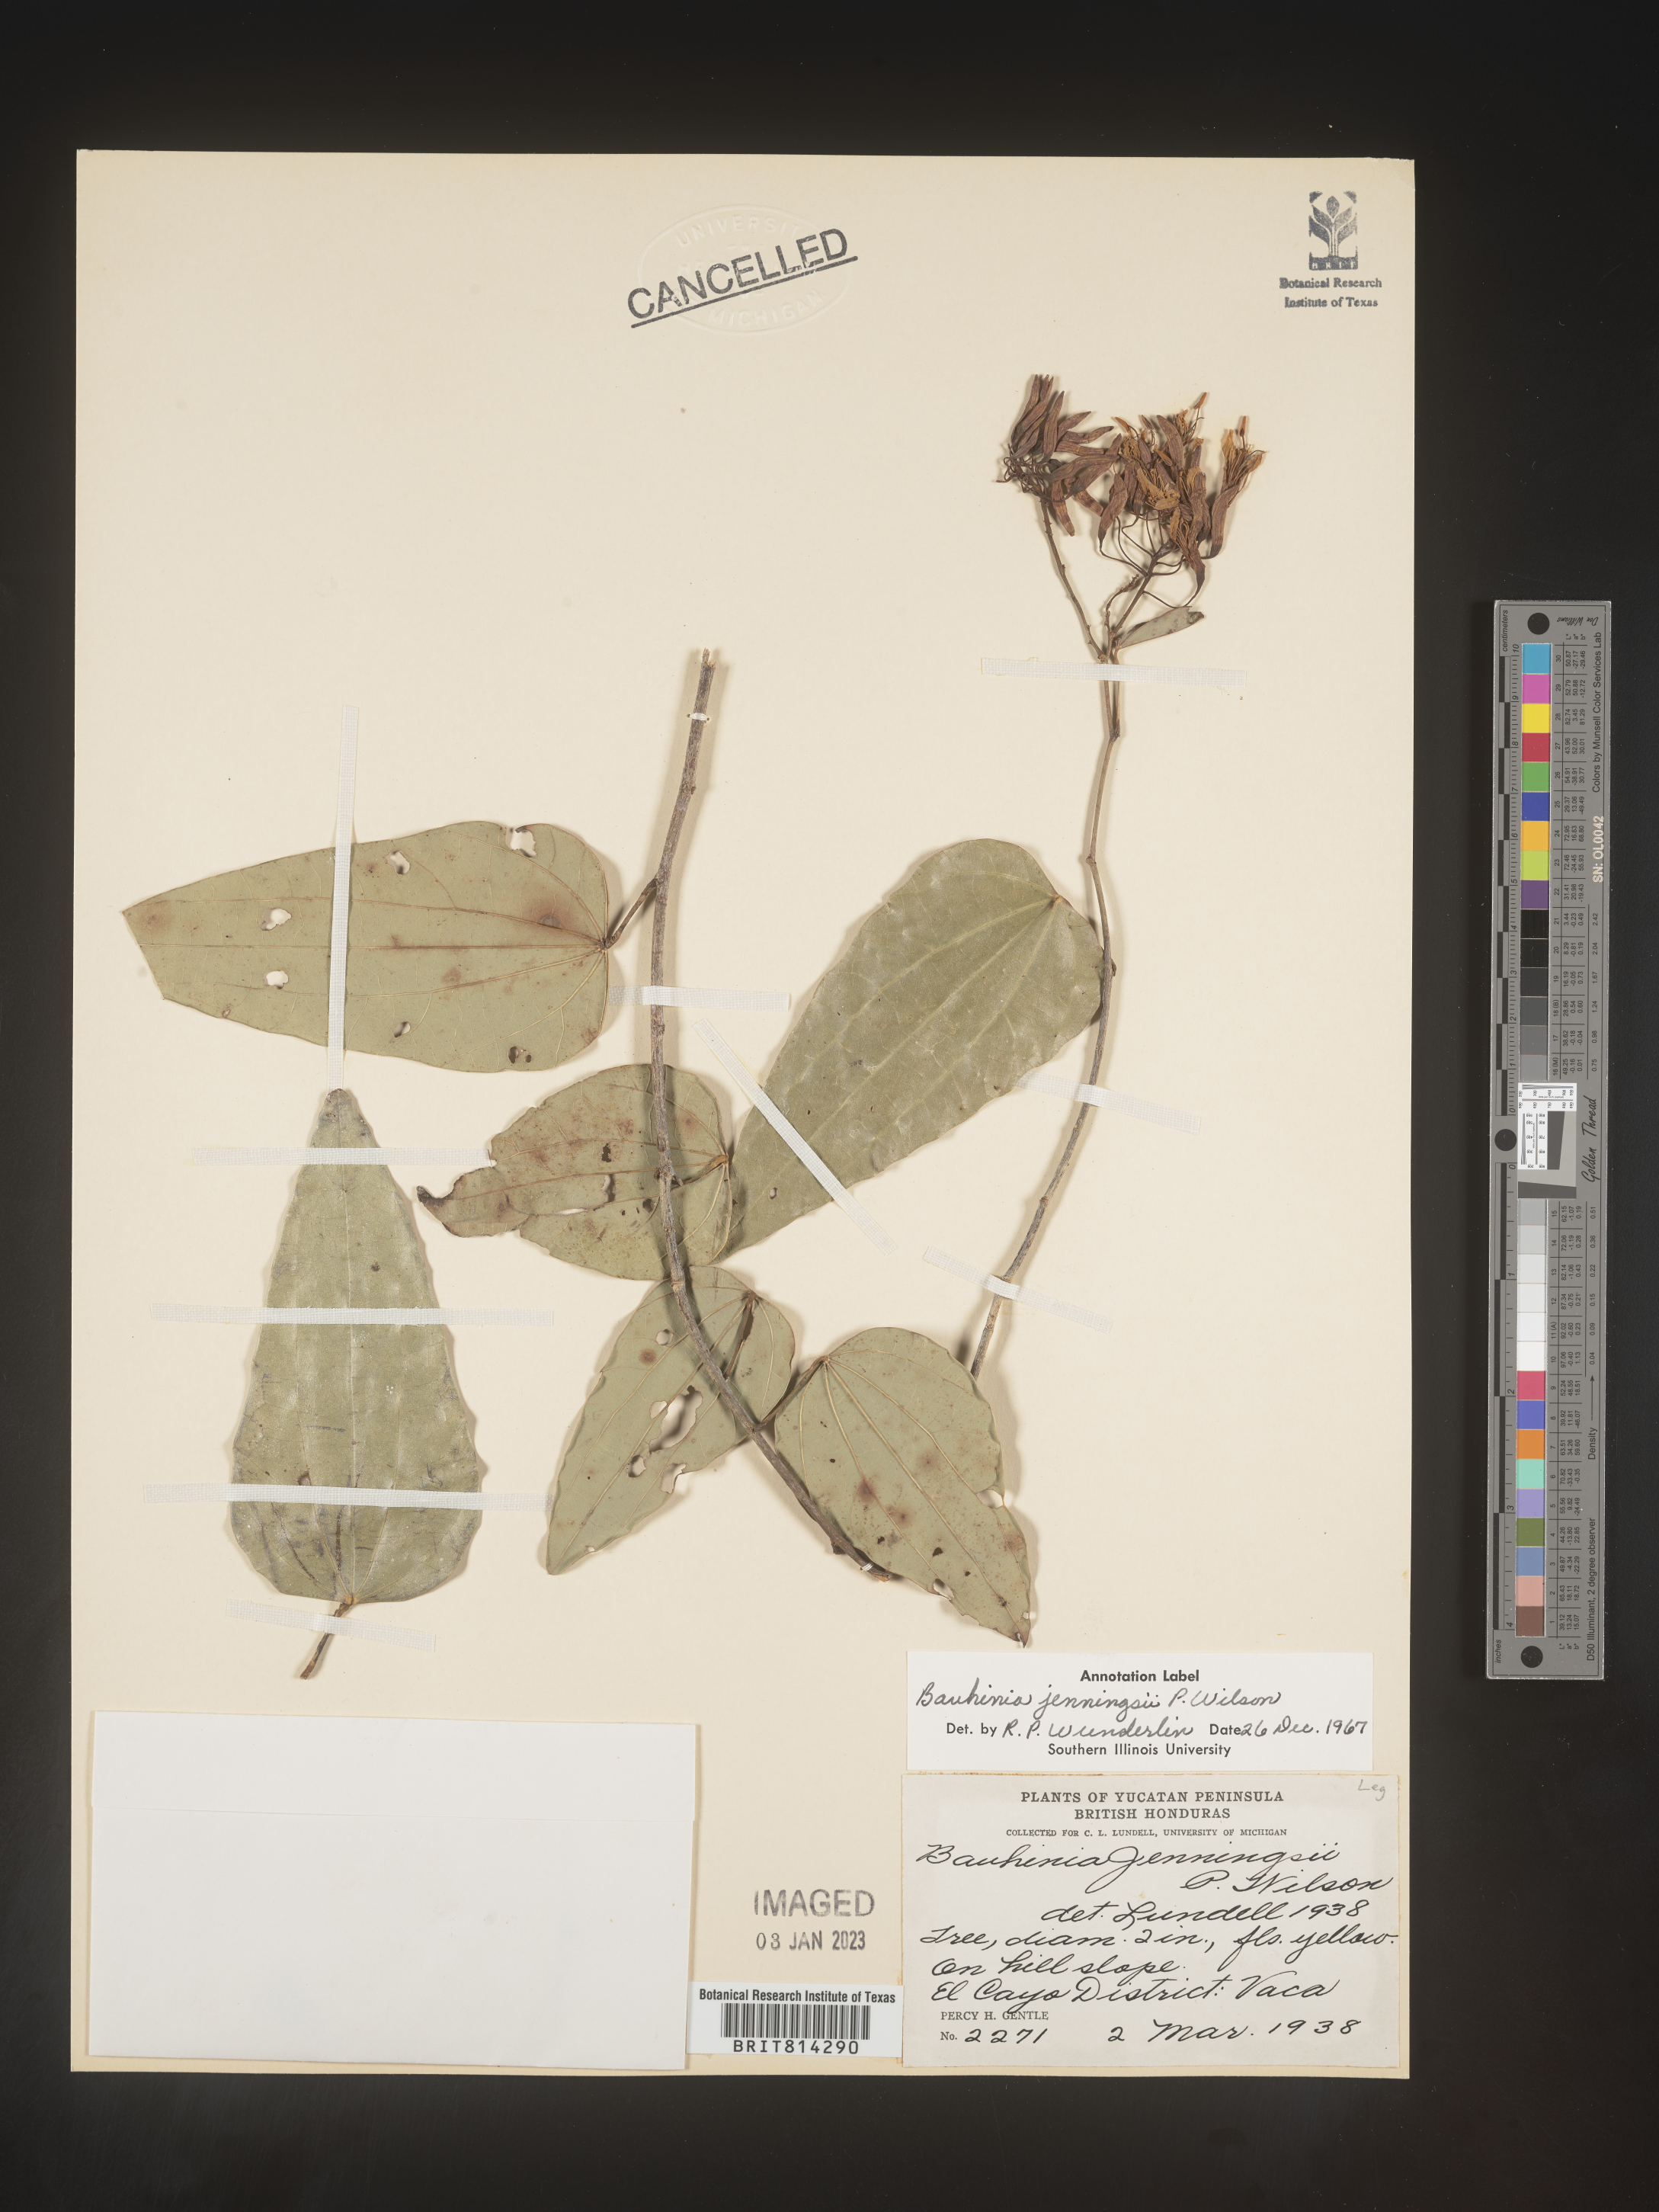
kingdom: Plantae
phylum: Tracheophyta
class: Magnoliopsida
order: Fabales
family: Fabaceae
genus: Bauhinia
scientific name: Bauhinia
